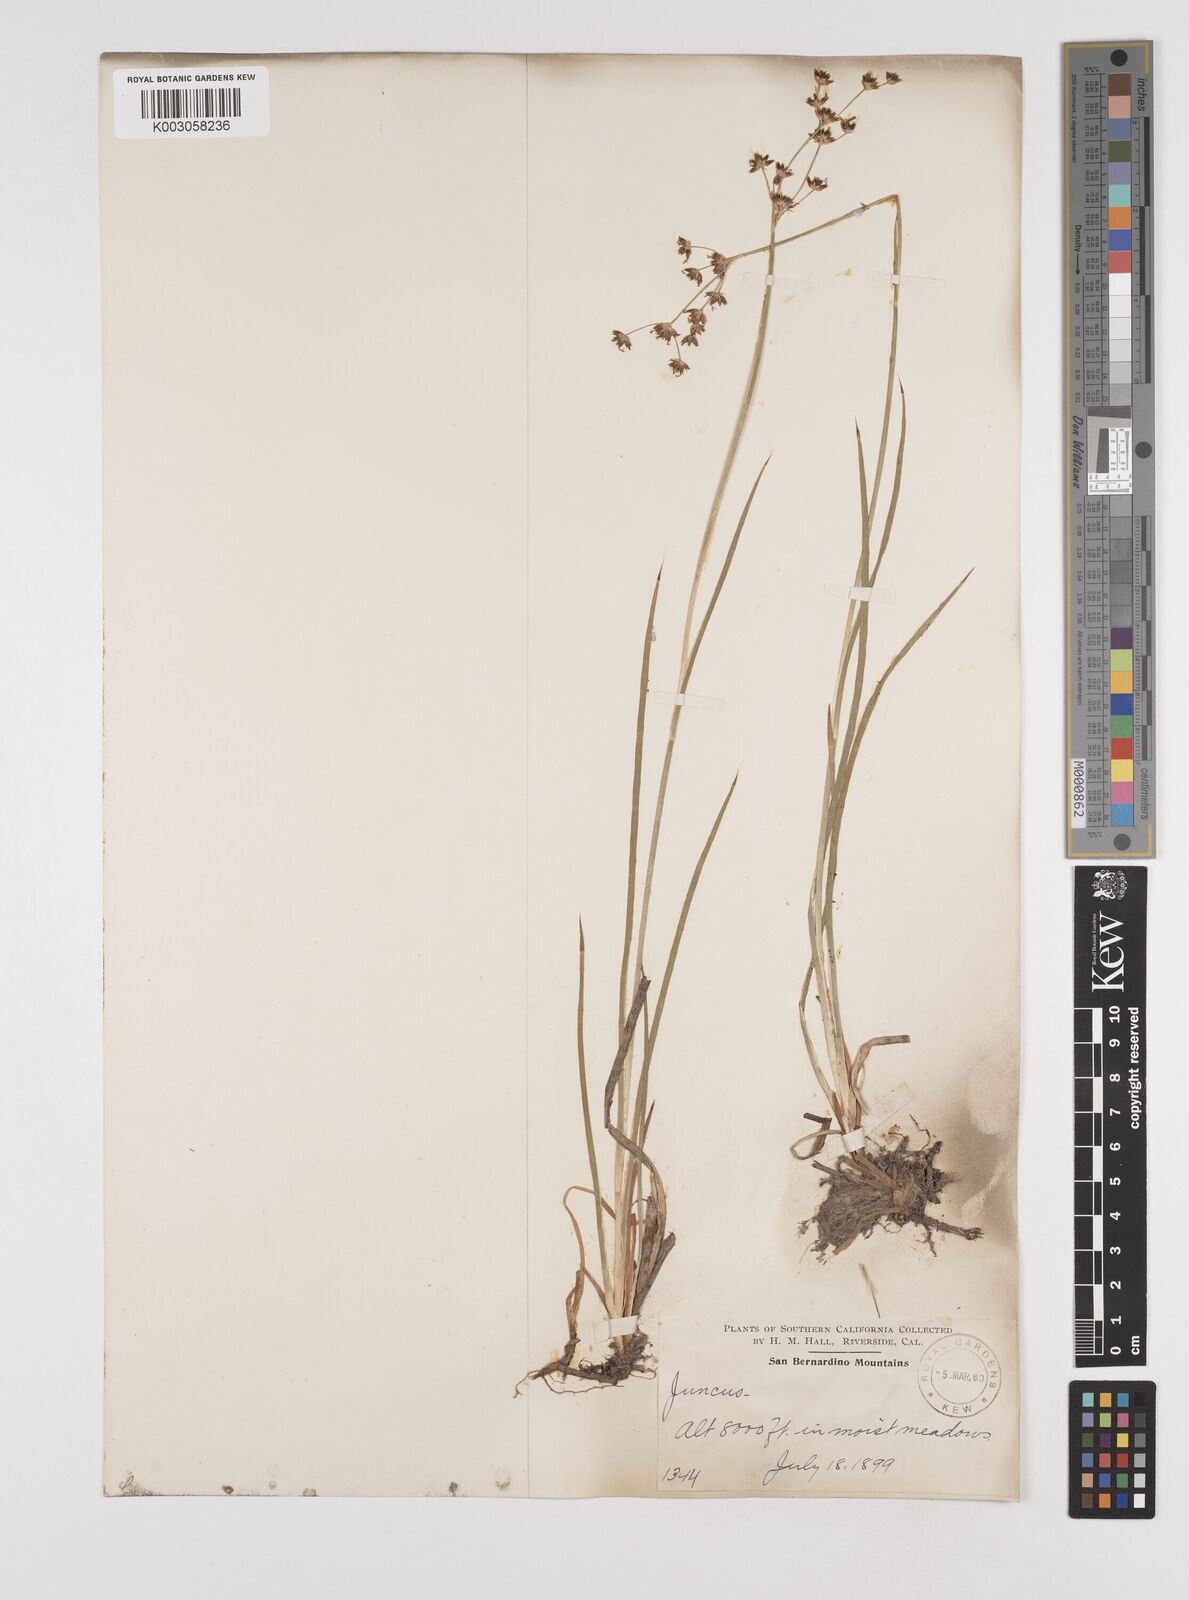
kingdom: Plantae
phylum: Tracheophyta
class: Liliopsida
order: Poales
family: Juncaceae
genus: Juncus
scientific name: Juncus
